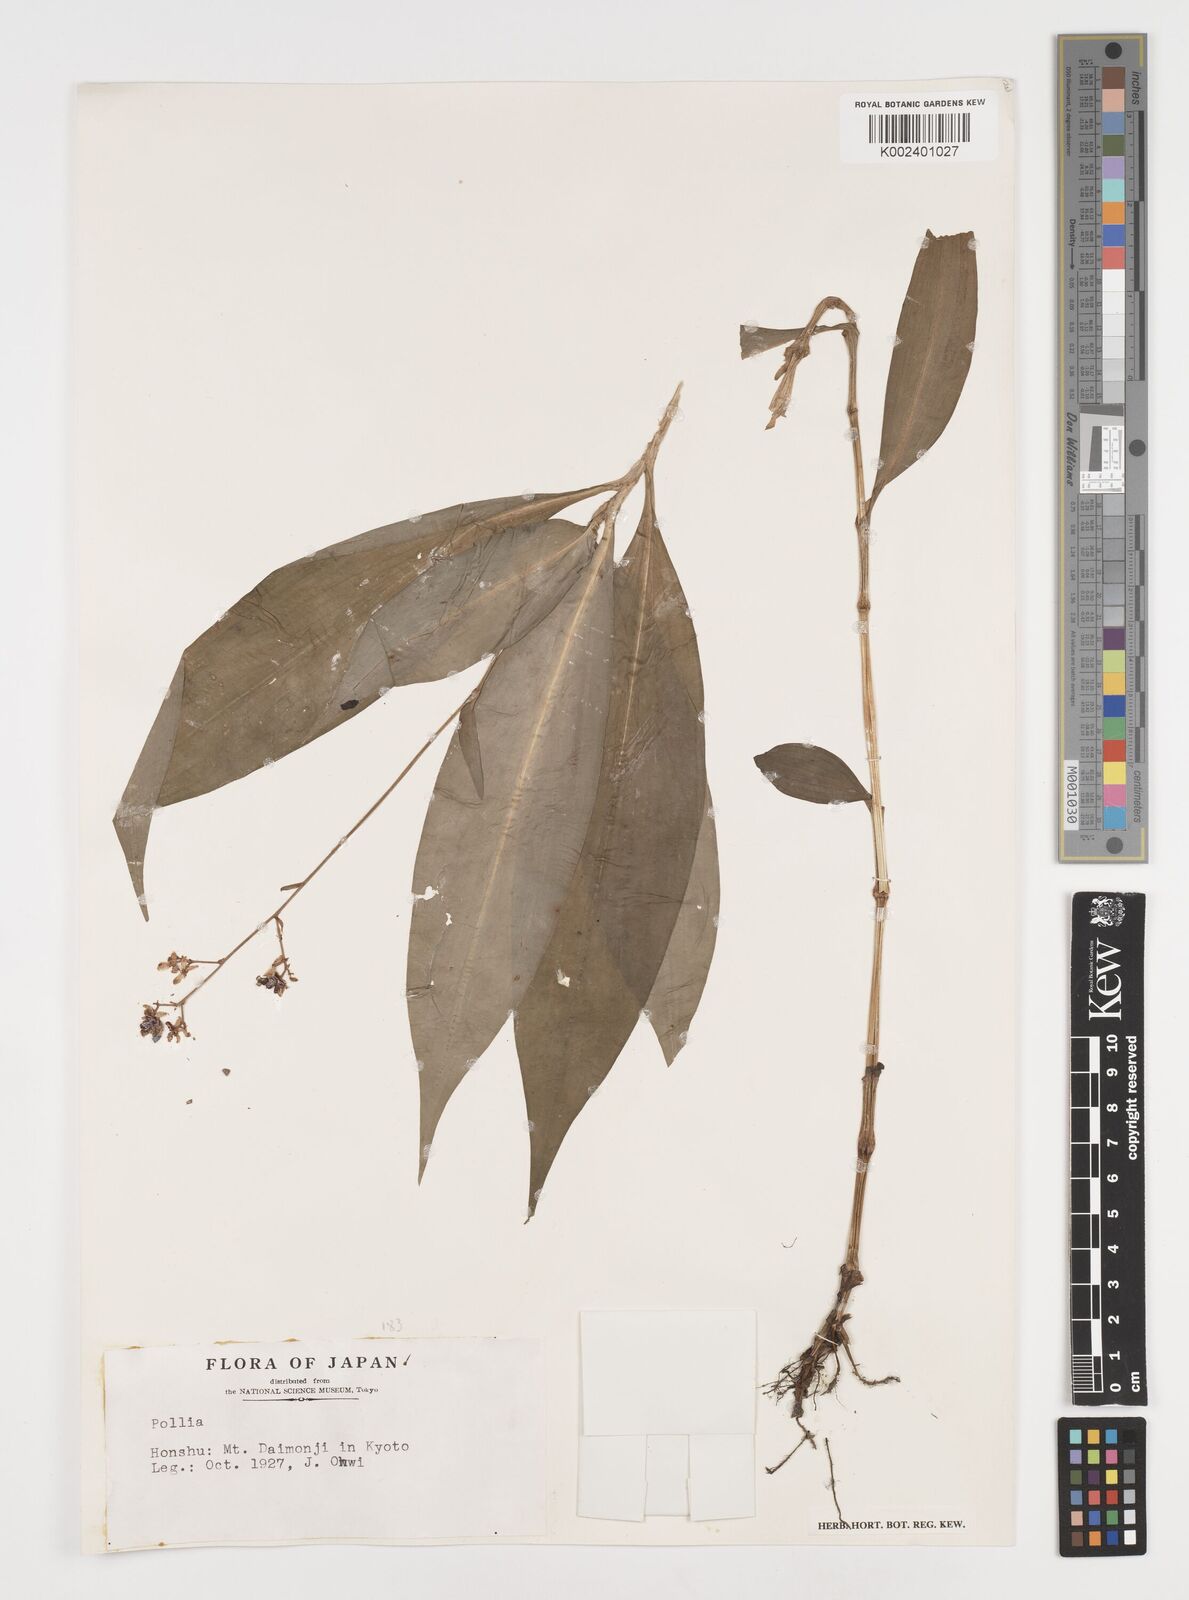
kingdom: Plantae
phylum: Tracheophyta
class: Liliopsida
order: Commelinales
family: Commelinaceae
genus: Pollia
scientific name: Pollia
